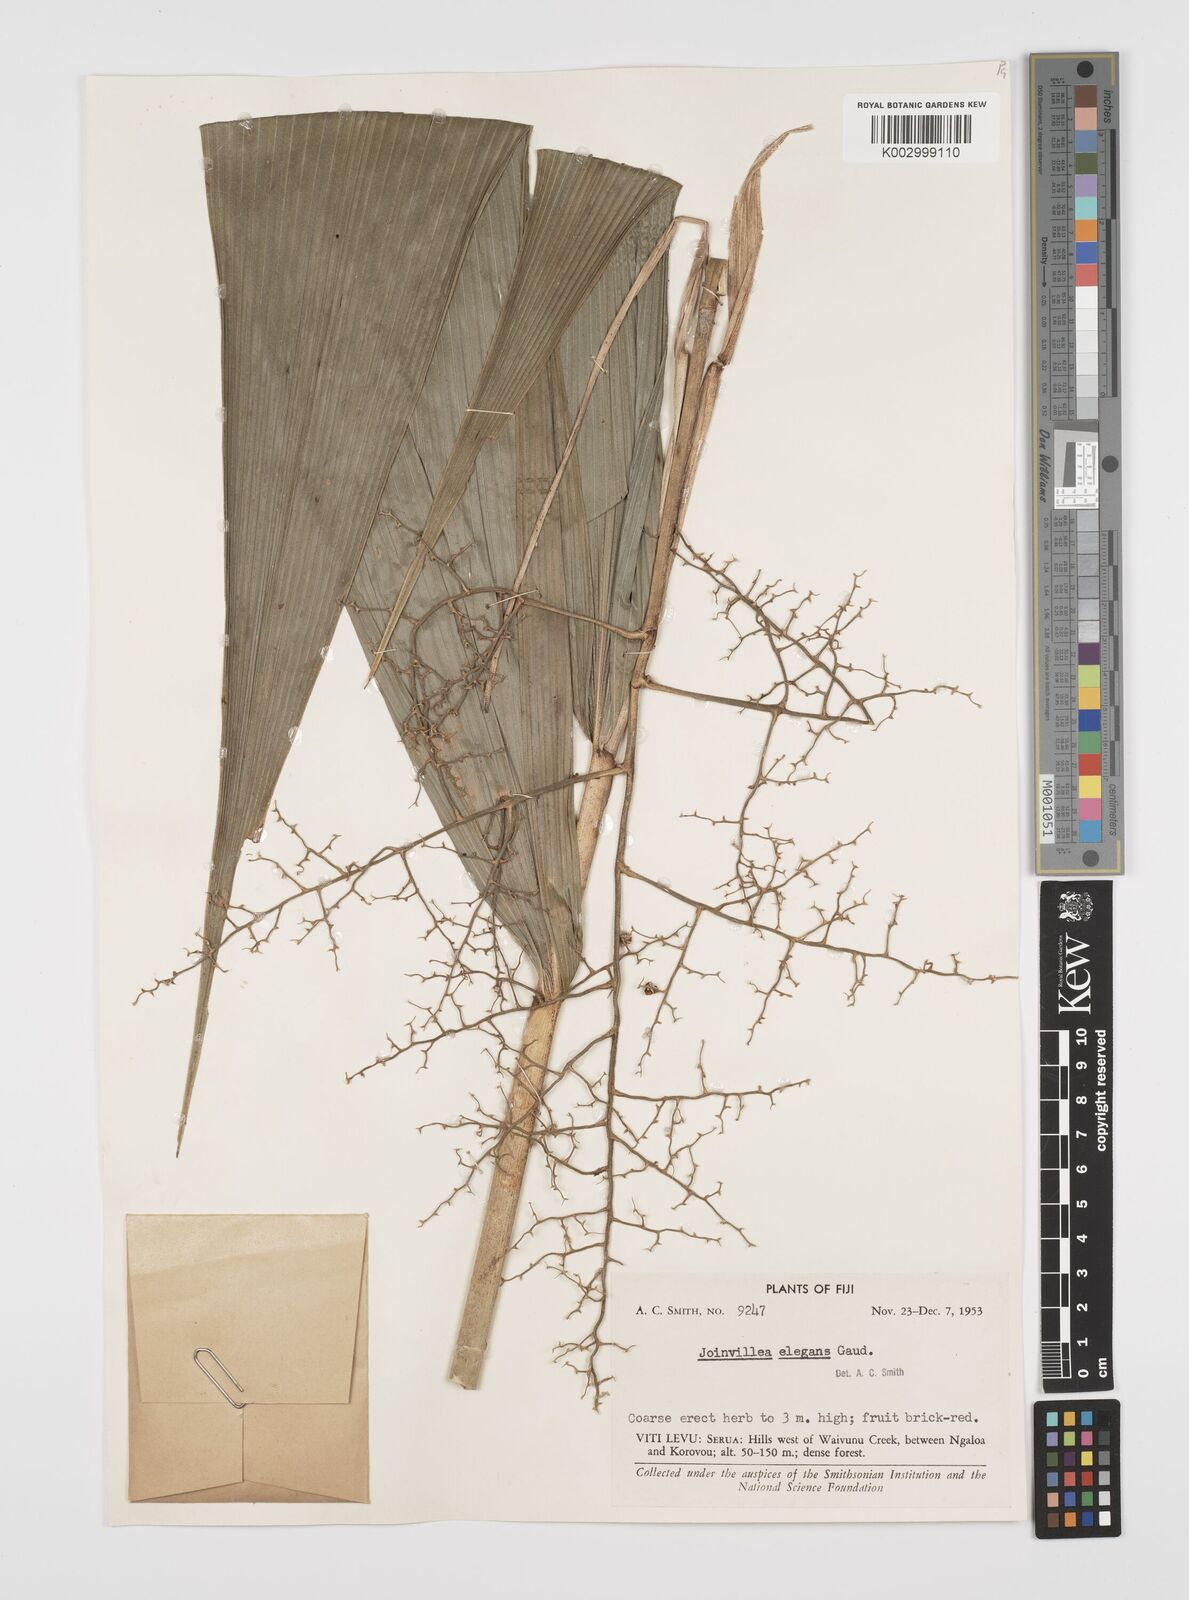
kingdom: Plantae
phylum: Tracheophyta
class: Liliopsida
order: Poales
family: Joinvilleaceae
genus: Joinvillea
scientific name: Joinvillea plicata
